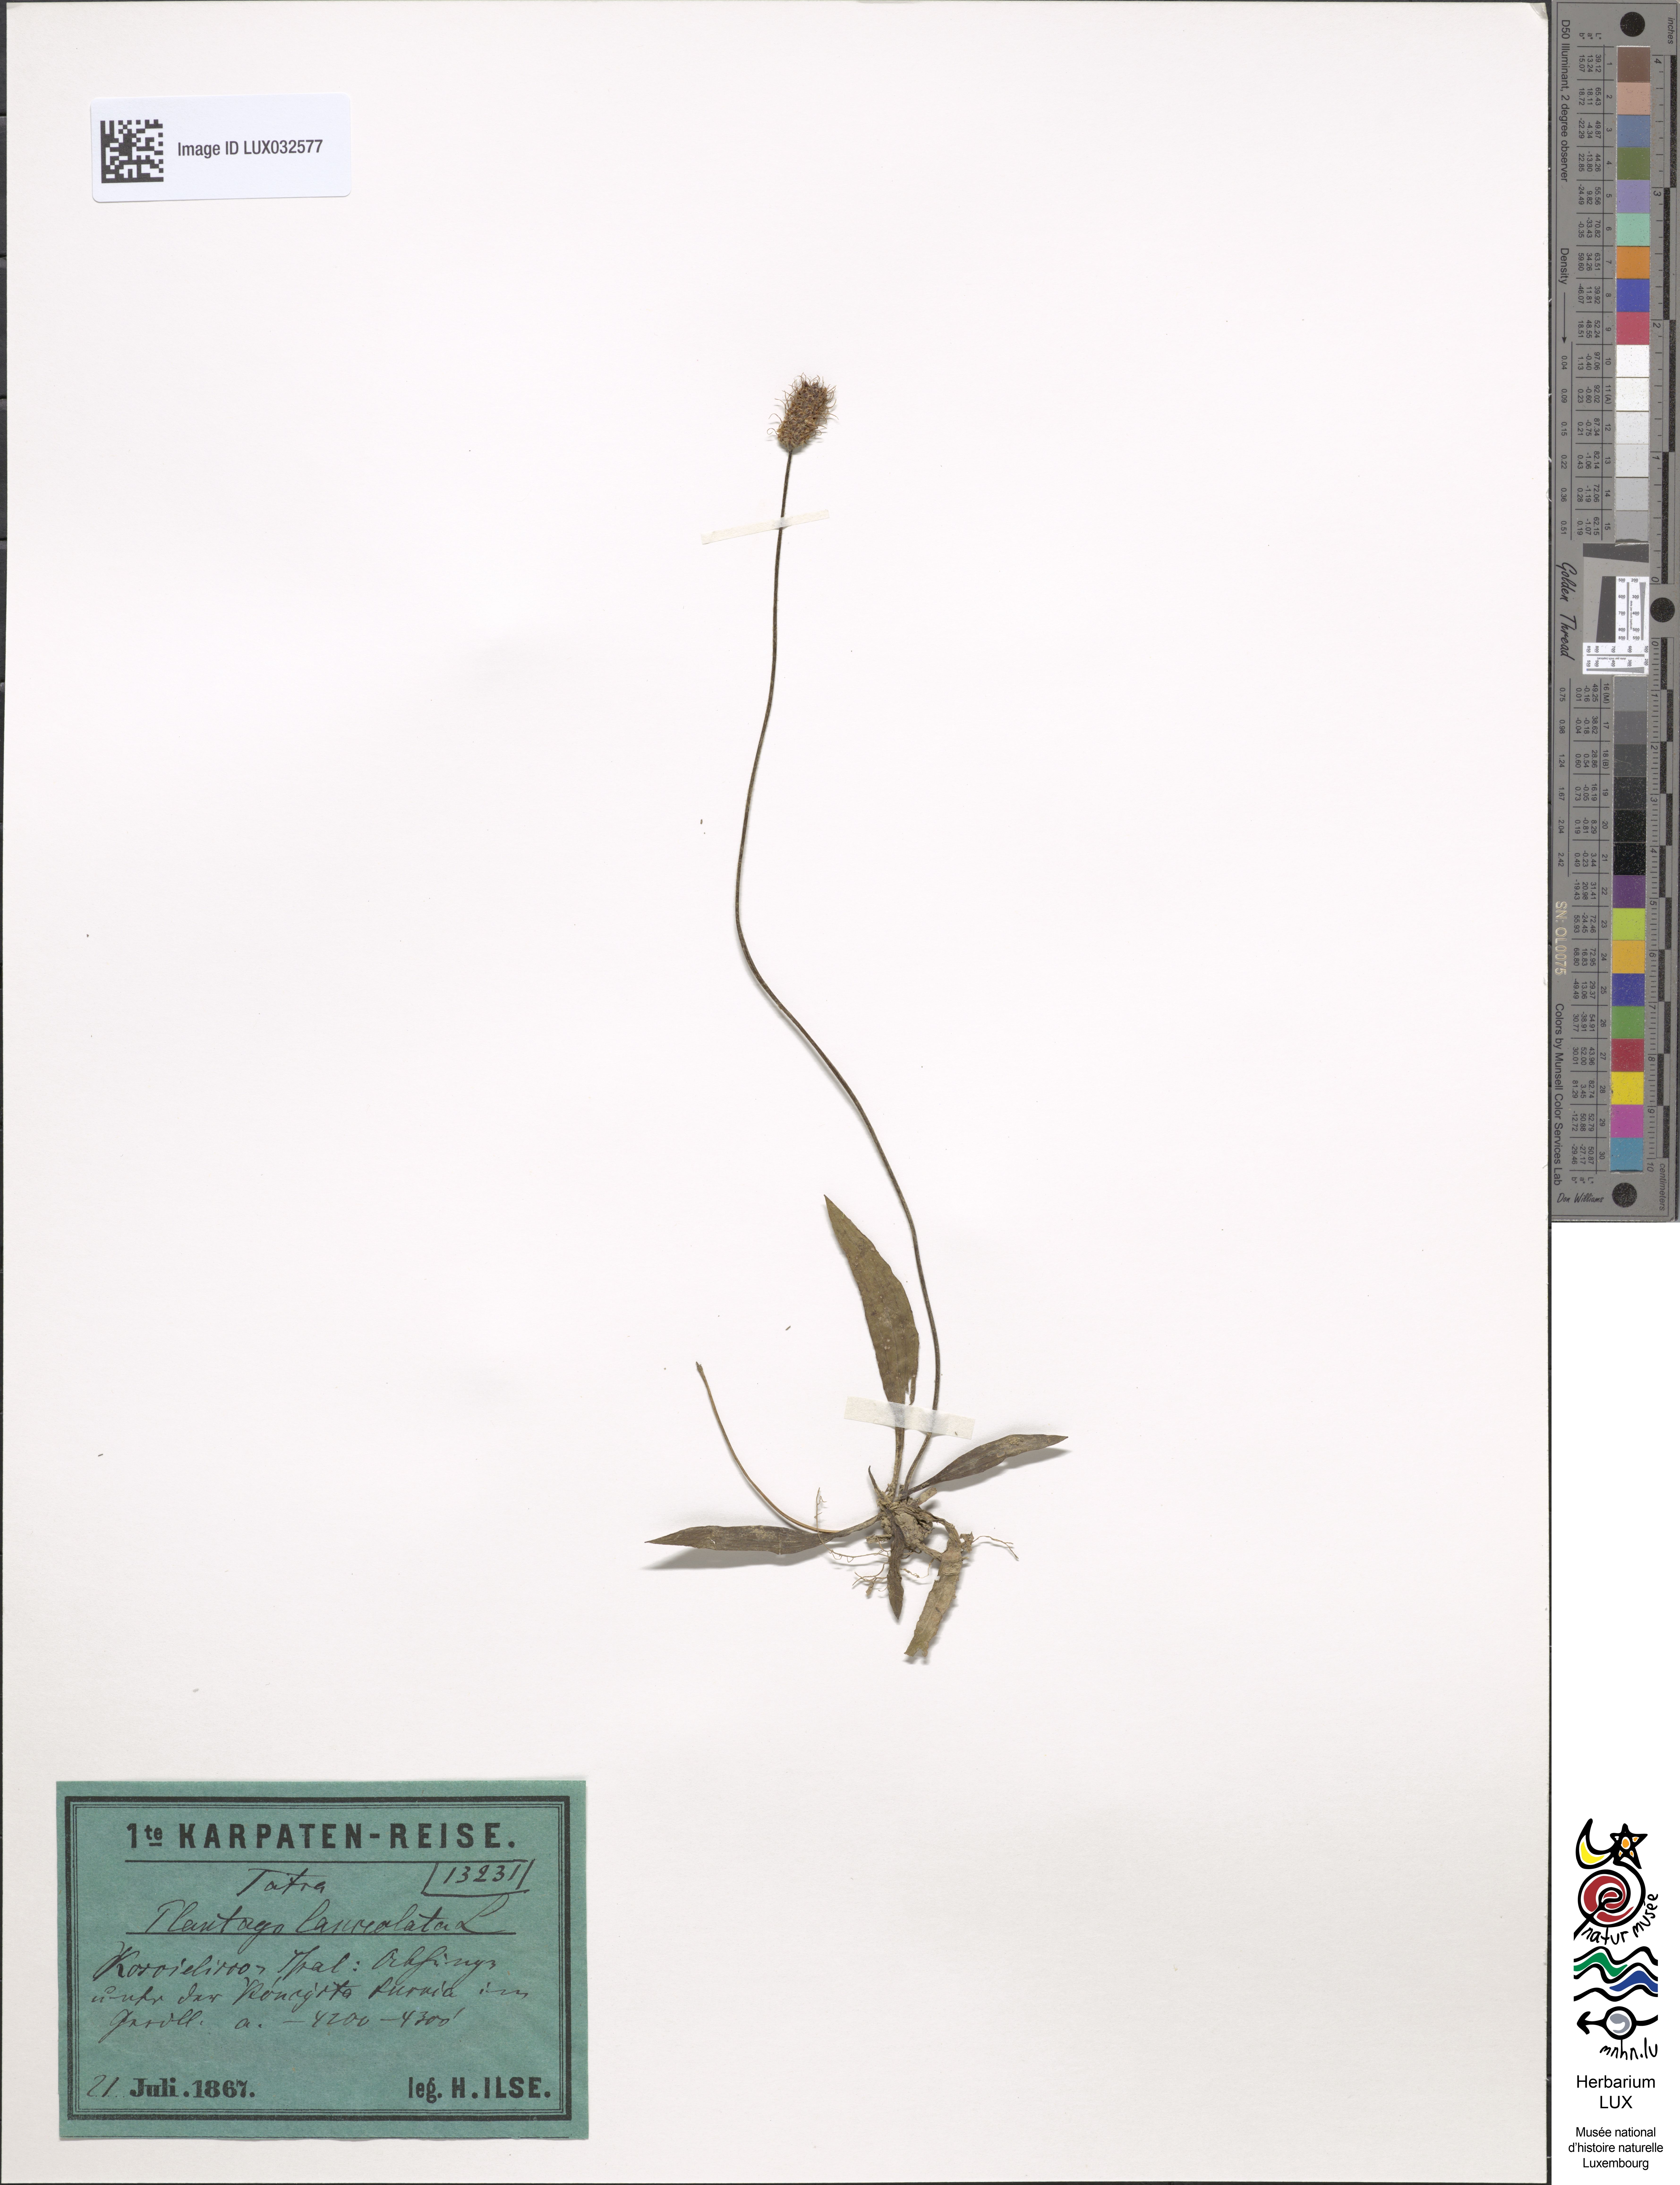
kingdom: Plantae
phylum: Tracheophyta
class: Magnoliopsida
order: Lamiales
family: Plantaginaceae
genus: Plantago
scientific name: Plantago lanceolata
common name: Ribwort plantain
